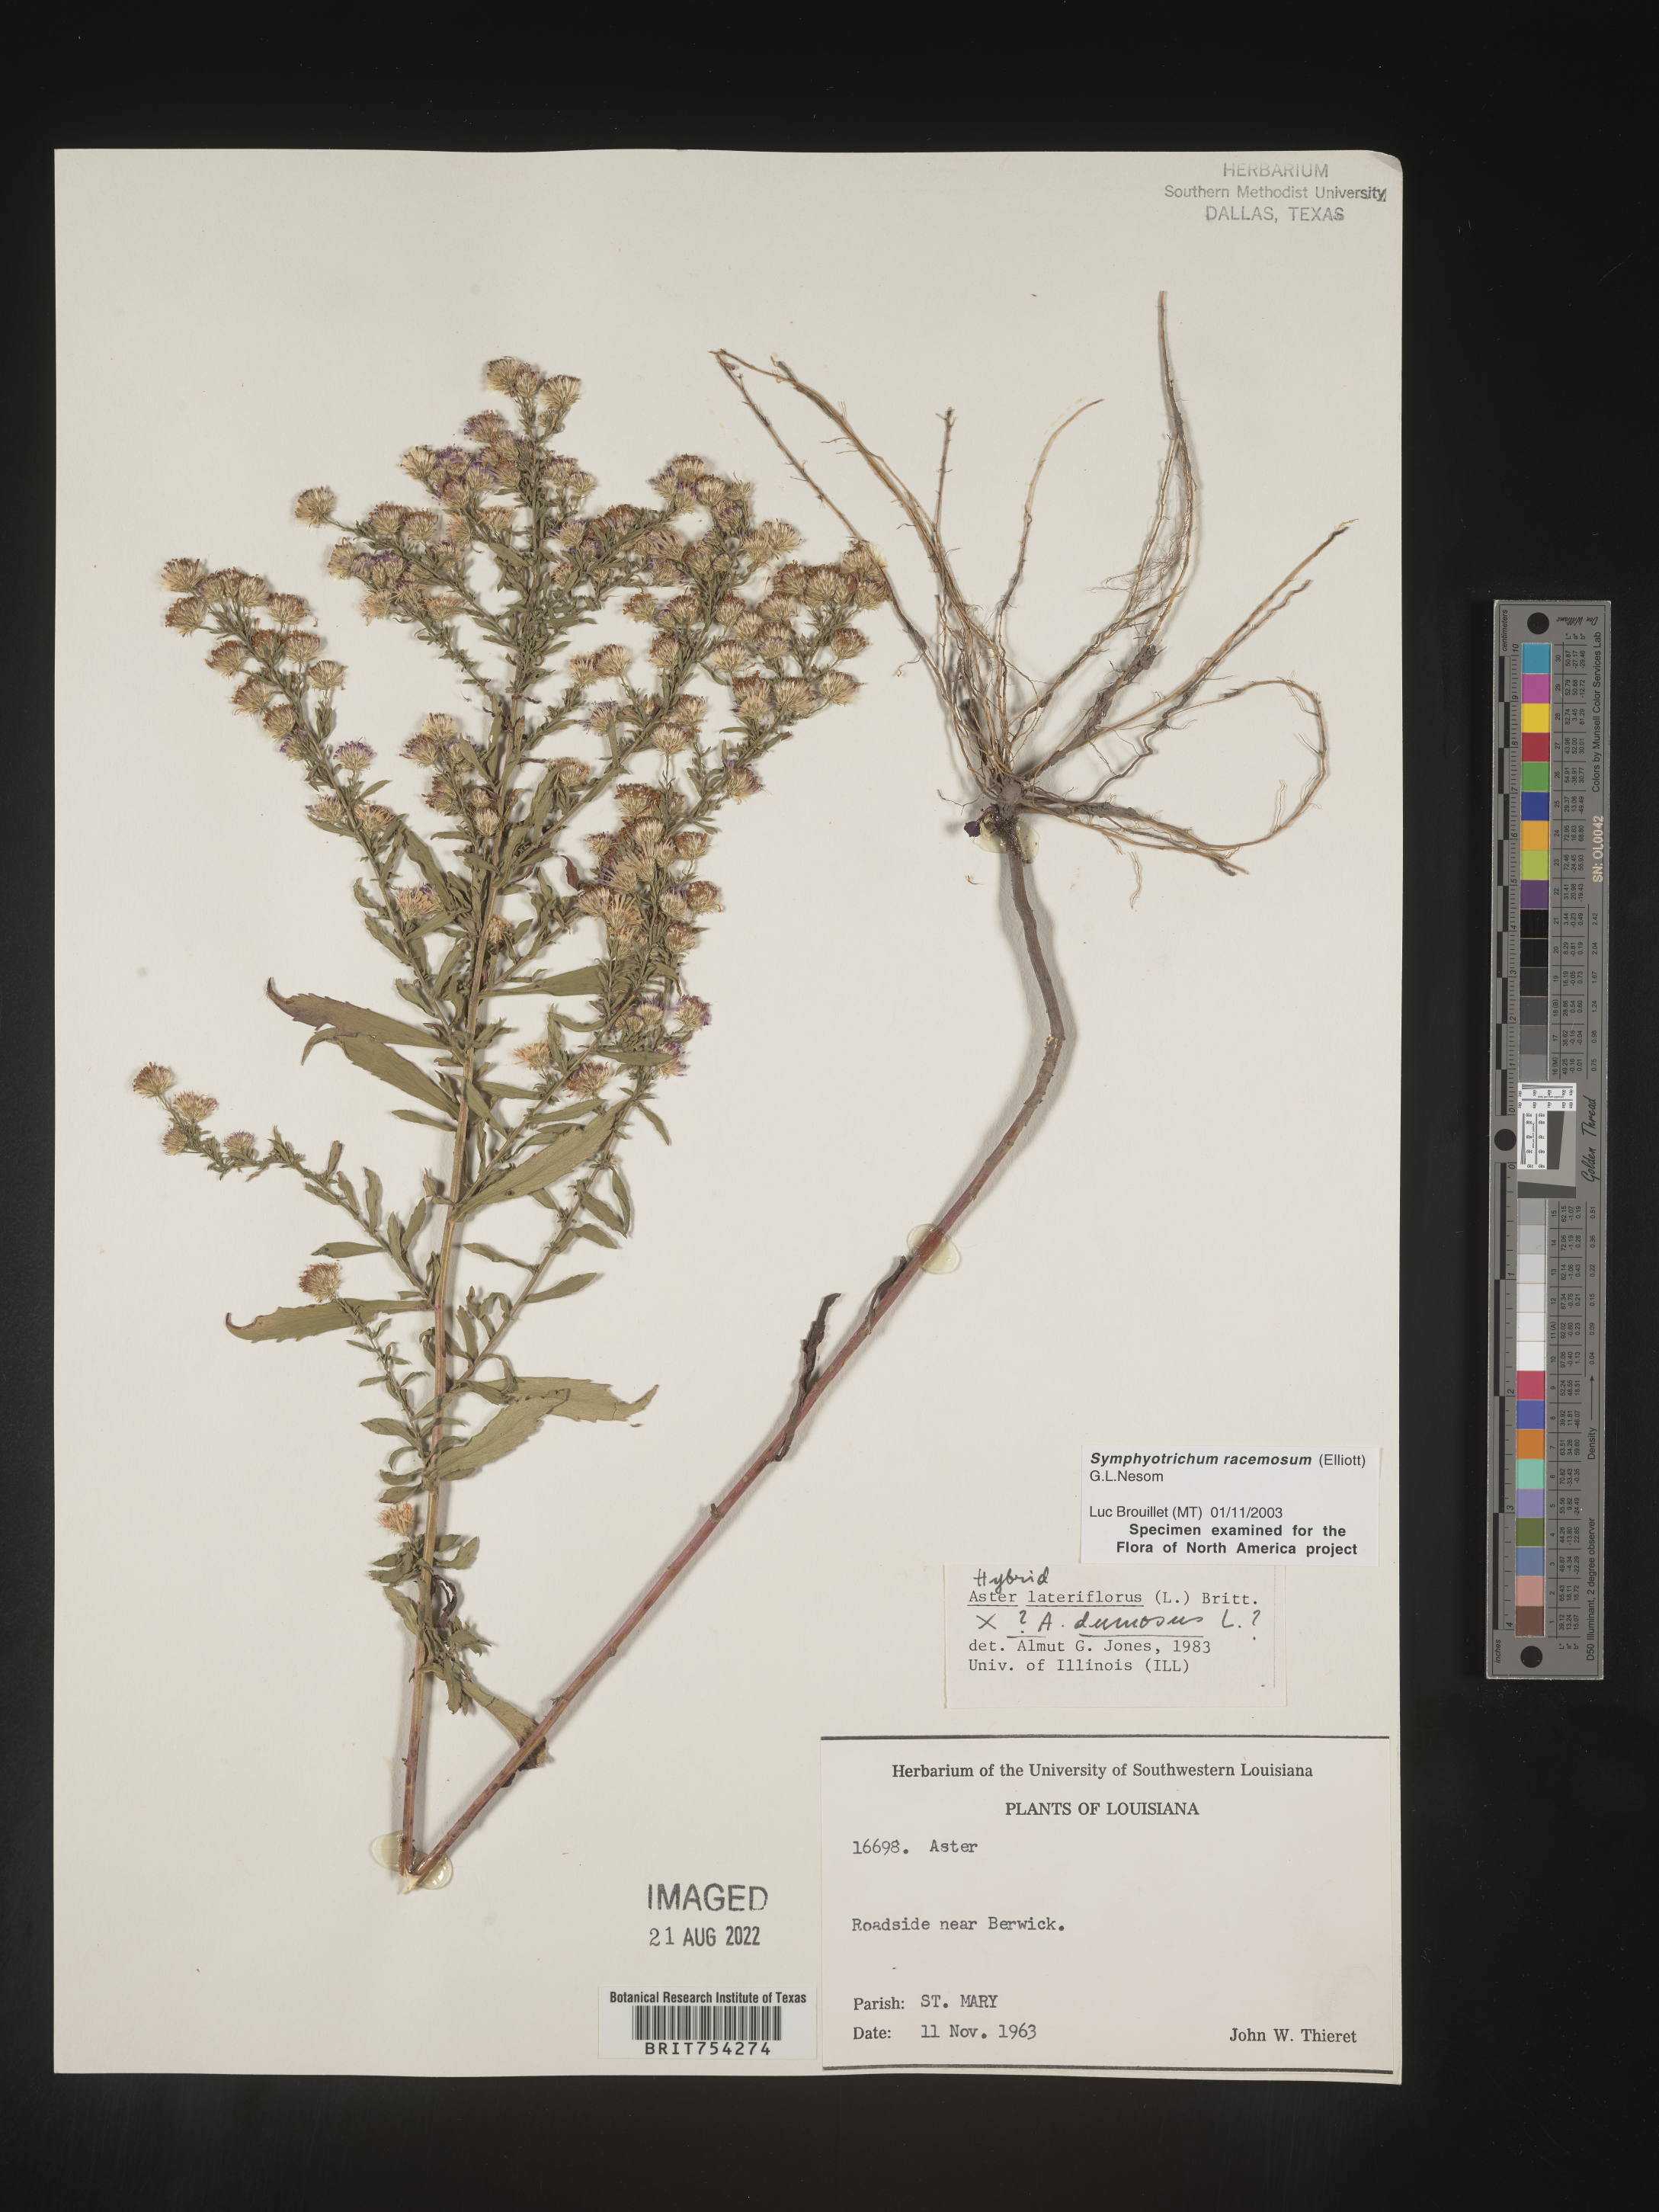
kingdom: Plantae
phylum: Tracheophyta
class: Magnoliopsida
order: Asterales
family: Asteraceae
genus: Symphyotrichum
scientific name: Symphyotrichum racemosum
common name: Small white aster
